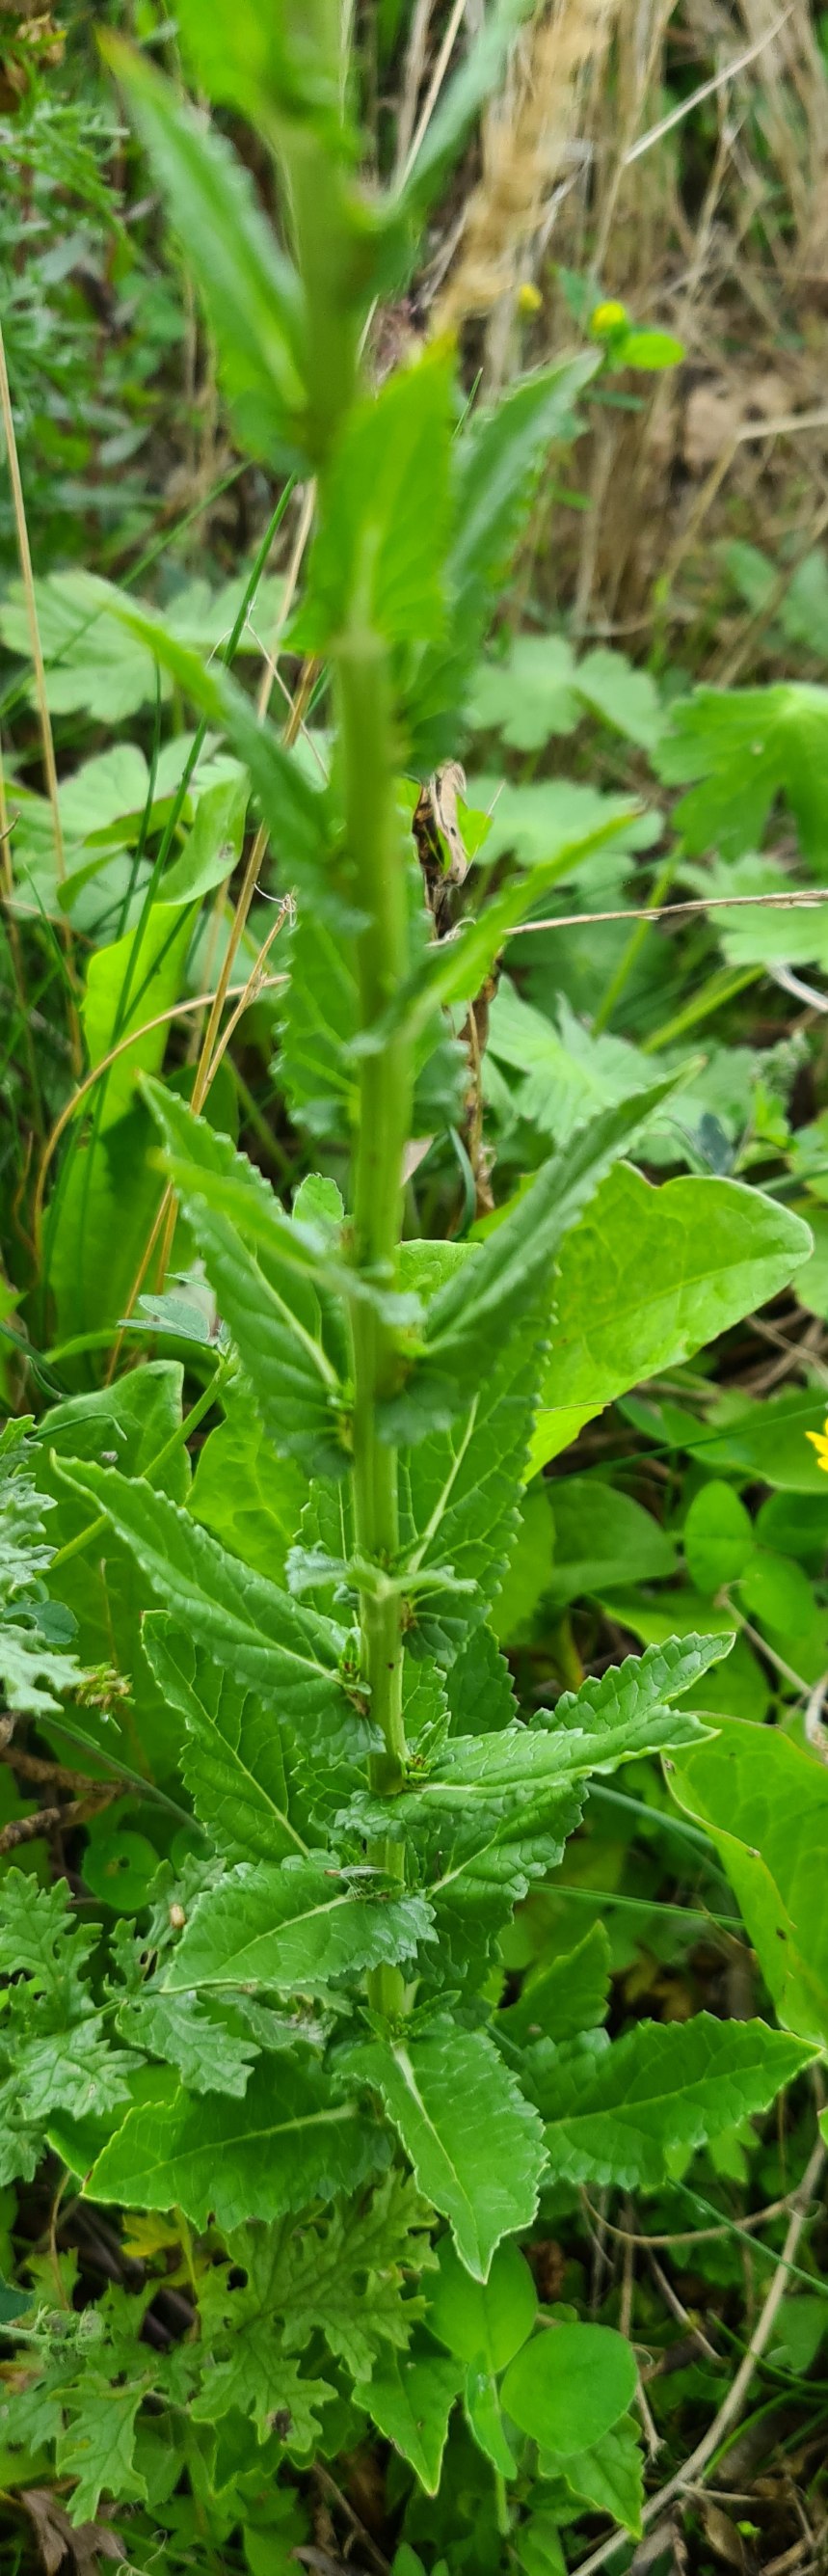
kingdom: Plantae
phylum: Tracheophyta
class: Magnoliopsida
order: Lamiales
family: Scrophulariaceae
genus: Verbascum
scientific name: Verbascum blattaria
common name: Klase-kongelys
